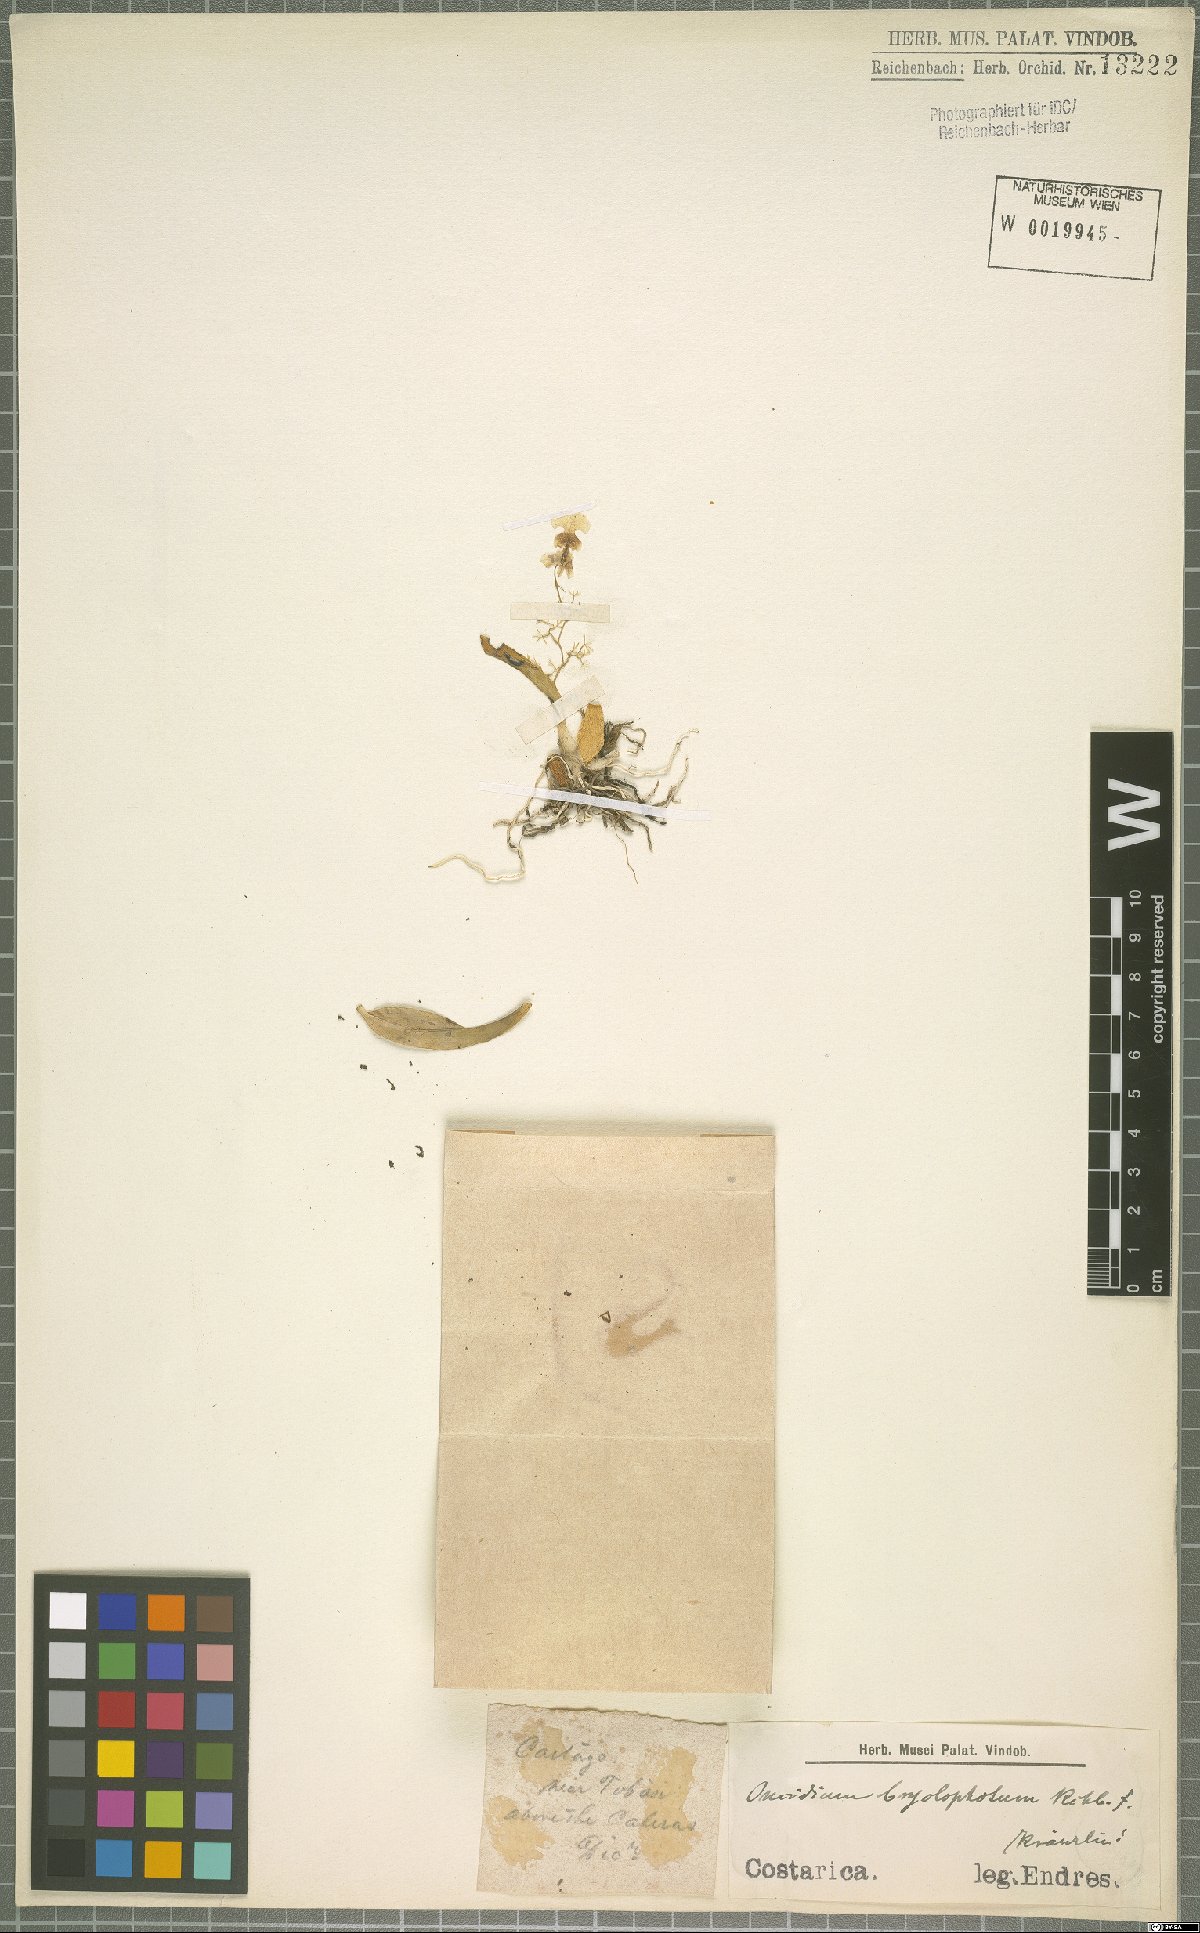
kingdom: Plantae
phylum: Tracheophyta
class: Liliopsida
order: Asparagales
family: Orchidaceae
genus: Oncidium
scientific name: Oncidium bryolophotum
